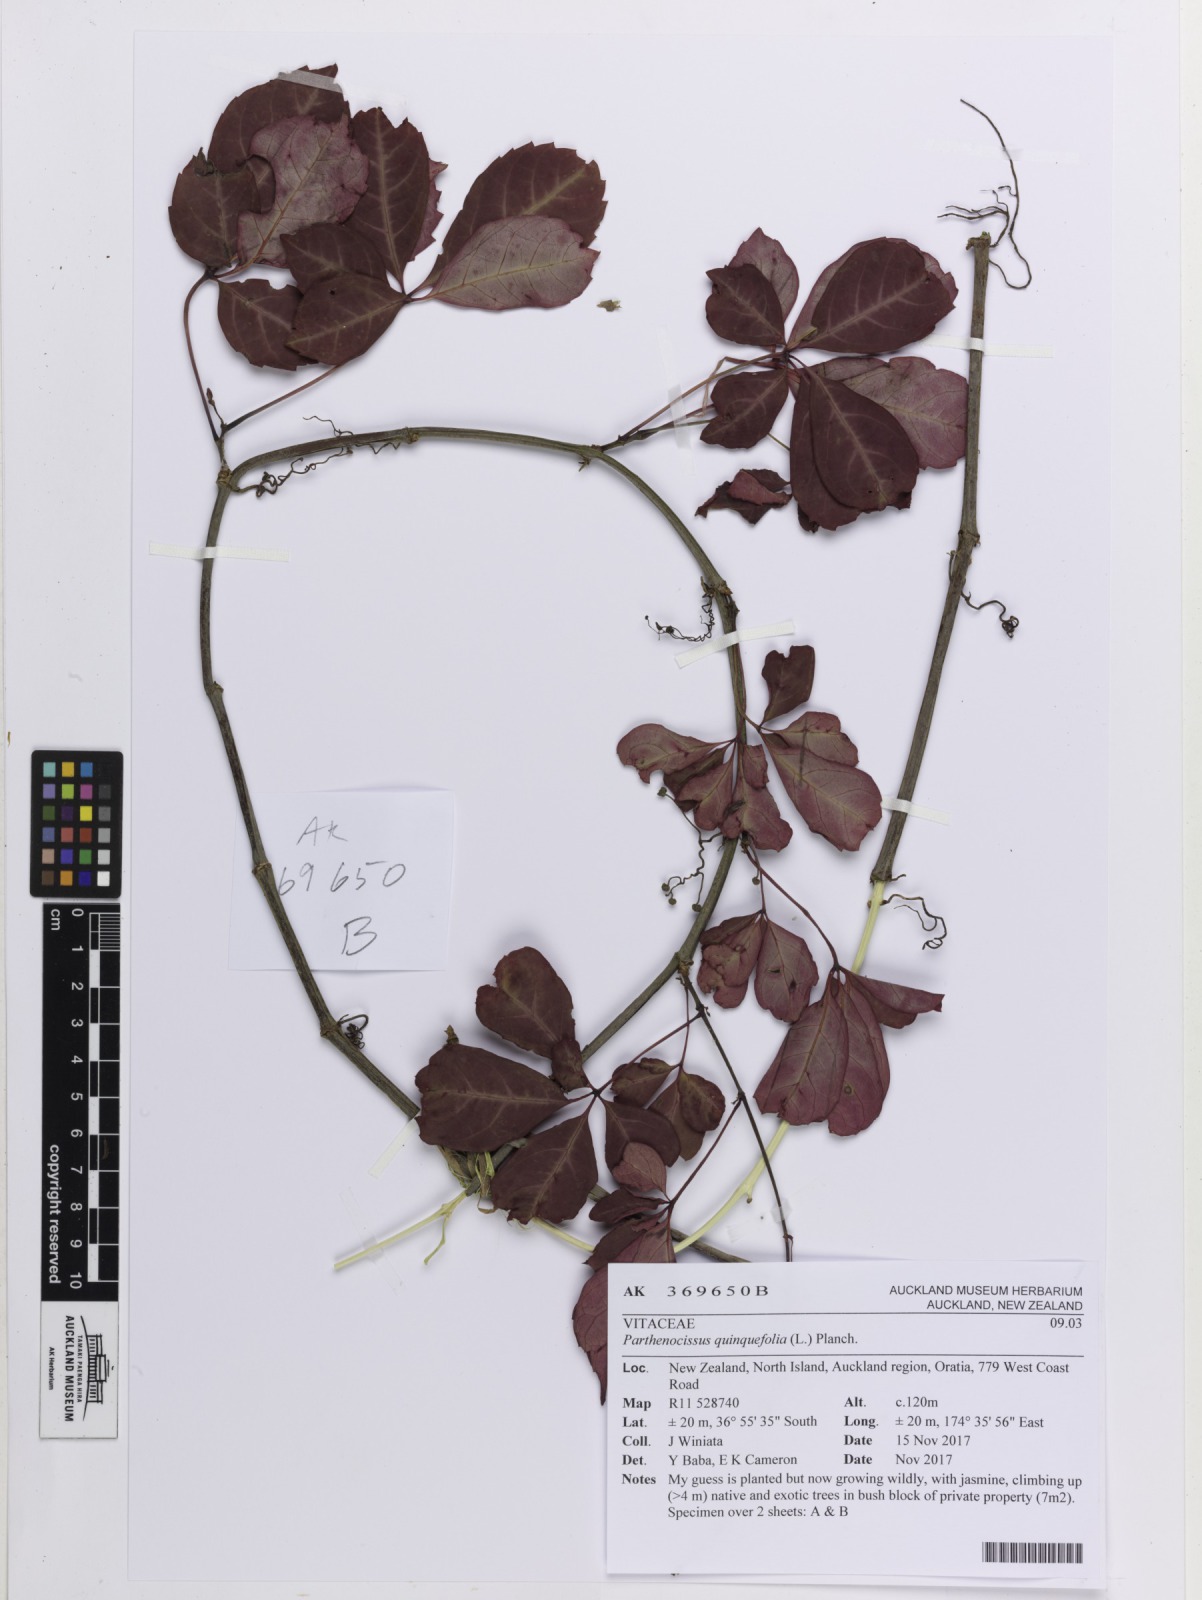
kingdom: Plantae
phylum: Tracheophyta
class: Magnoliopsida
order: Vitales
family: Vitaceae
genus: Parthenocissus
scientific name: Parthenocissus quinquefolia
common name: Virginia-creeper
